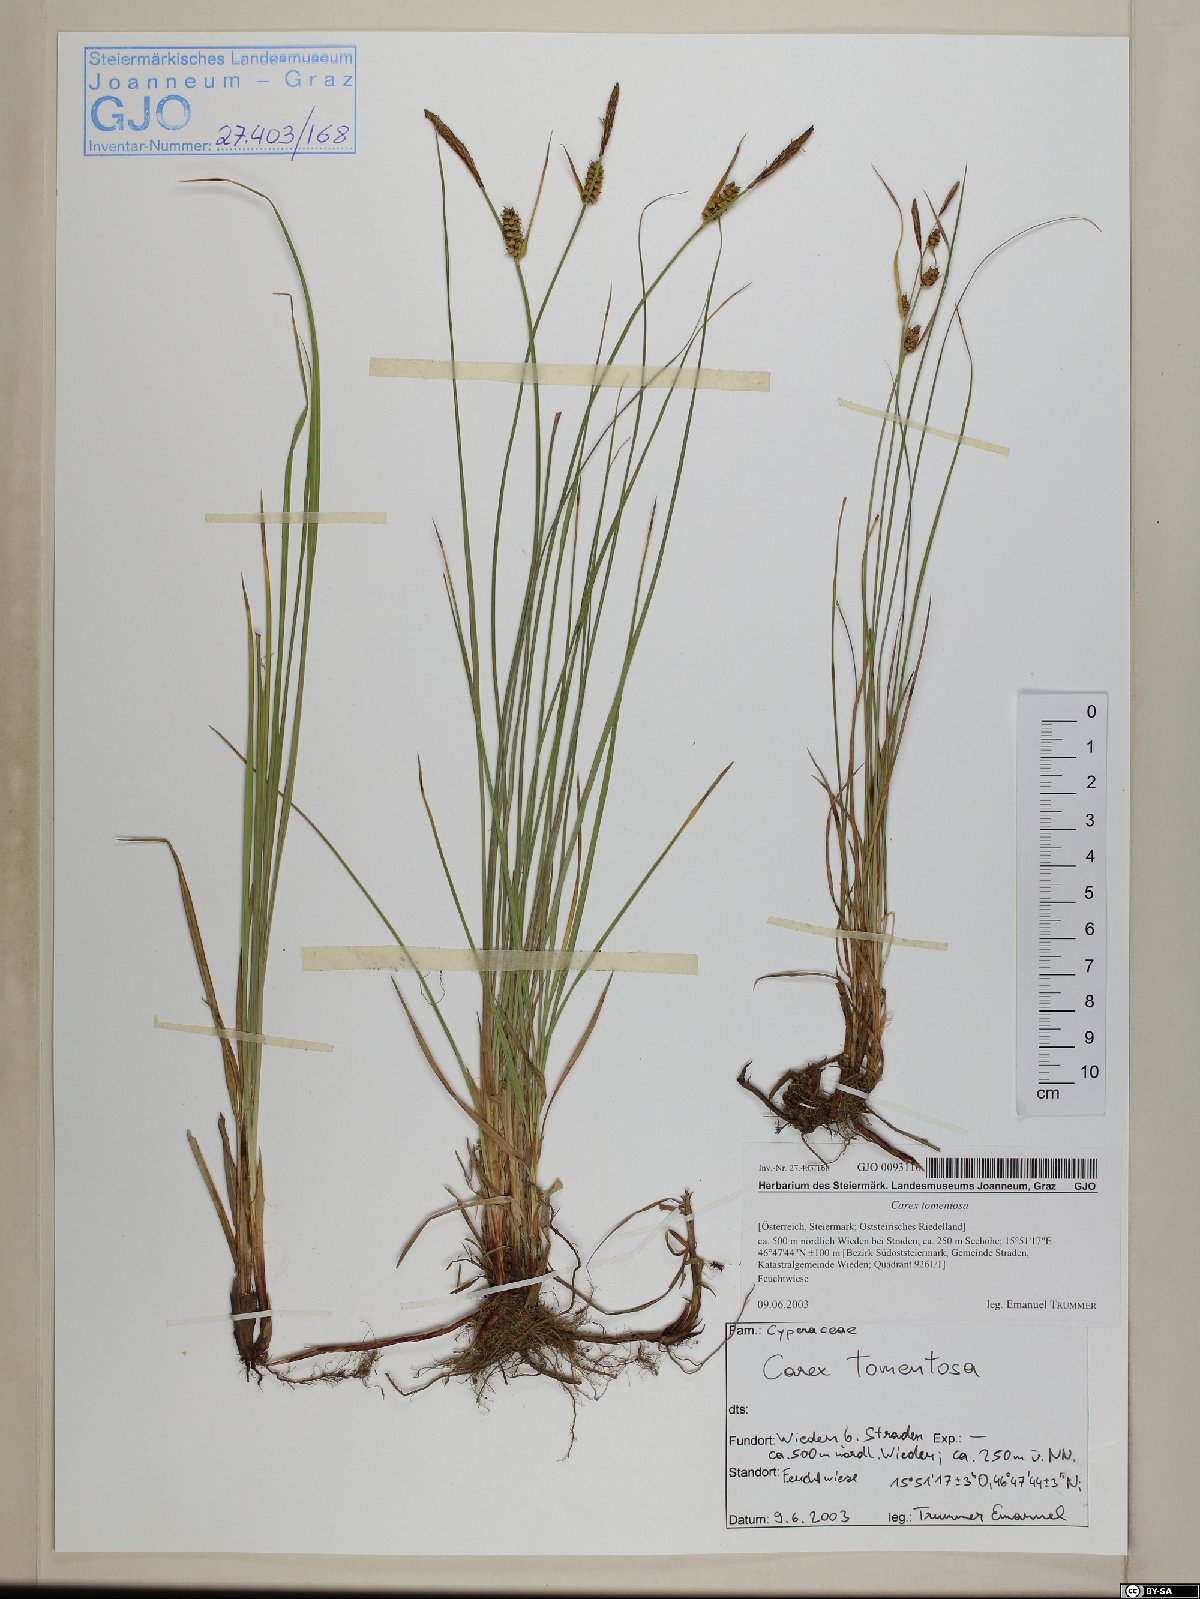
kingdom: Plantae
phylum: Tracheophyta
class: Liliopsida
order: Poales
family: Cyperaceae
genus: Carex
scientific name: Carex tomentosa
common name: Downy-fruited sedge
